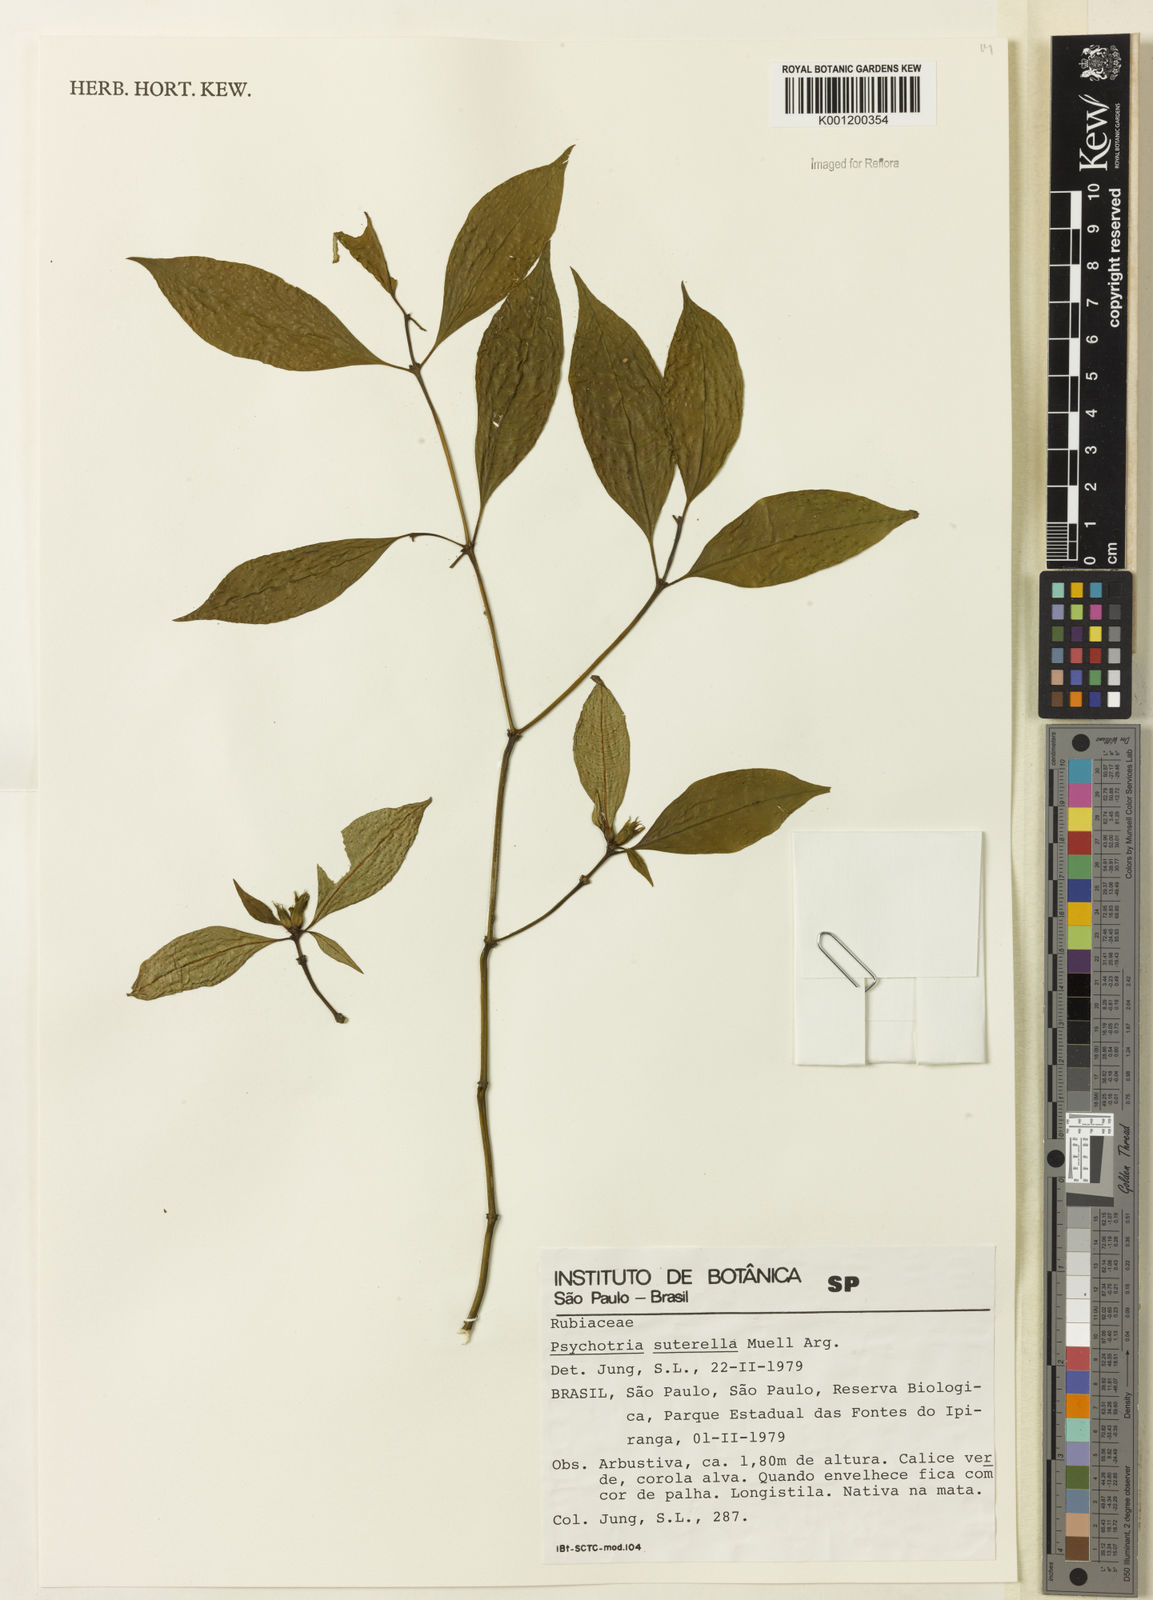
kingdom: Plantae
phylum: Tracheophyta
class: Magnoliopsida
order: Gentianales
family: Rubiaceae
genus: Psychotria
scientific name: Psychotria
